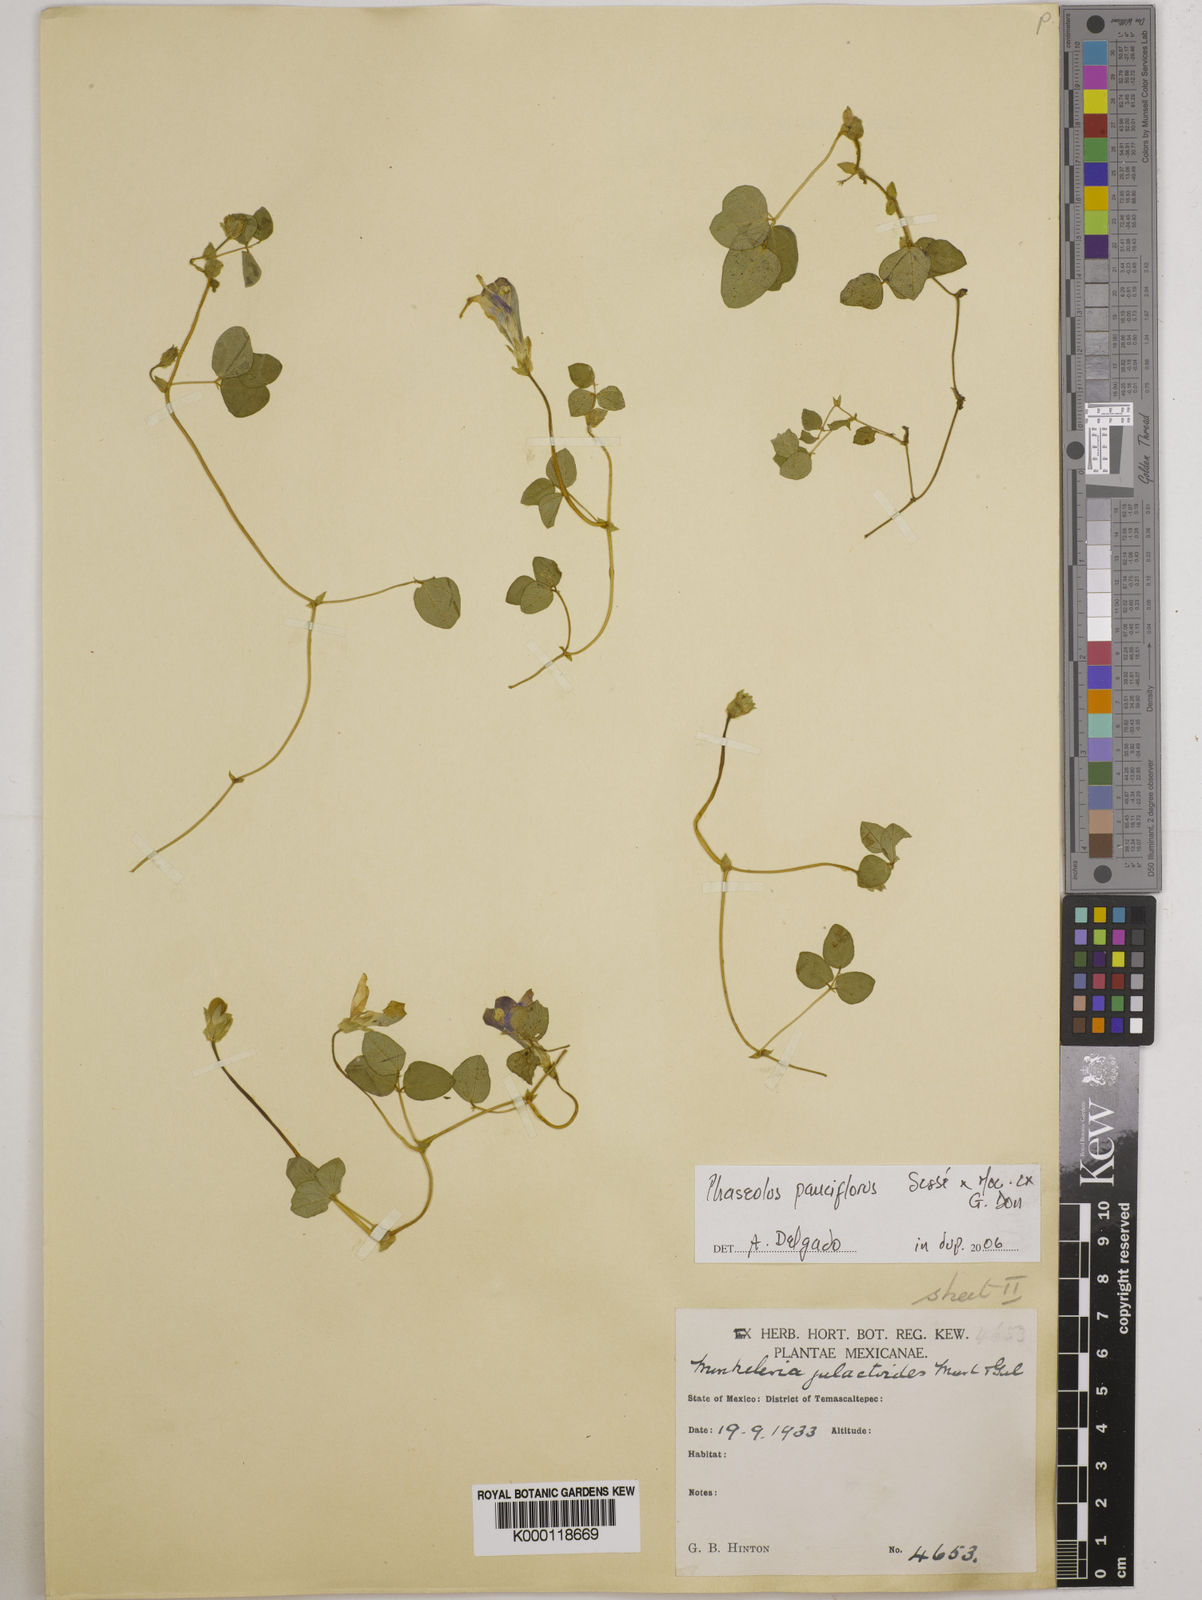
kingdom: Plantae
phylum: Tracheophyta
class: Magnoliopsida
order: Fabales
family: Fabaceae
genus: Phaseolus
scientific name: Phaseolus
